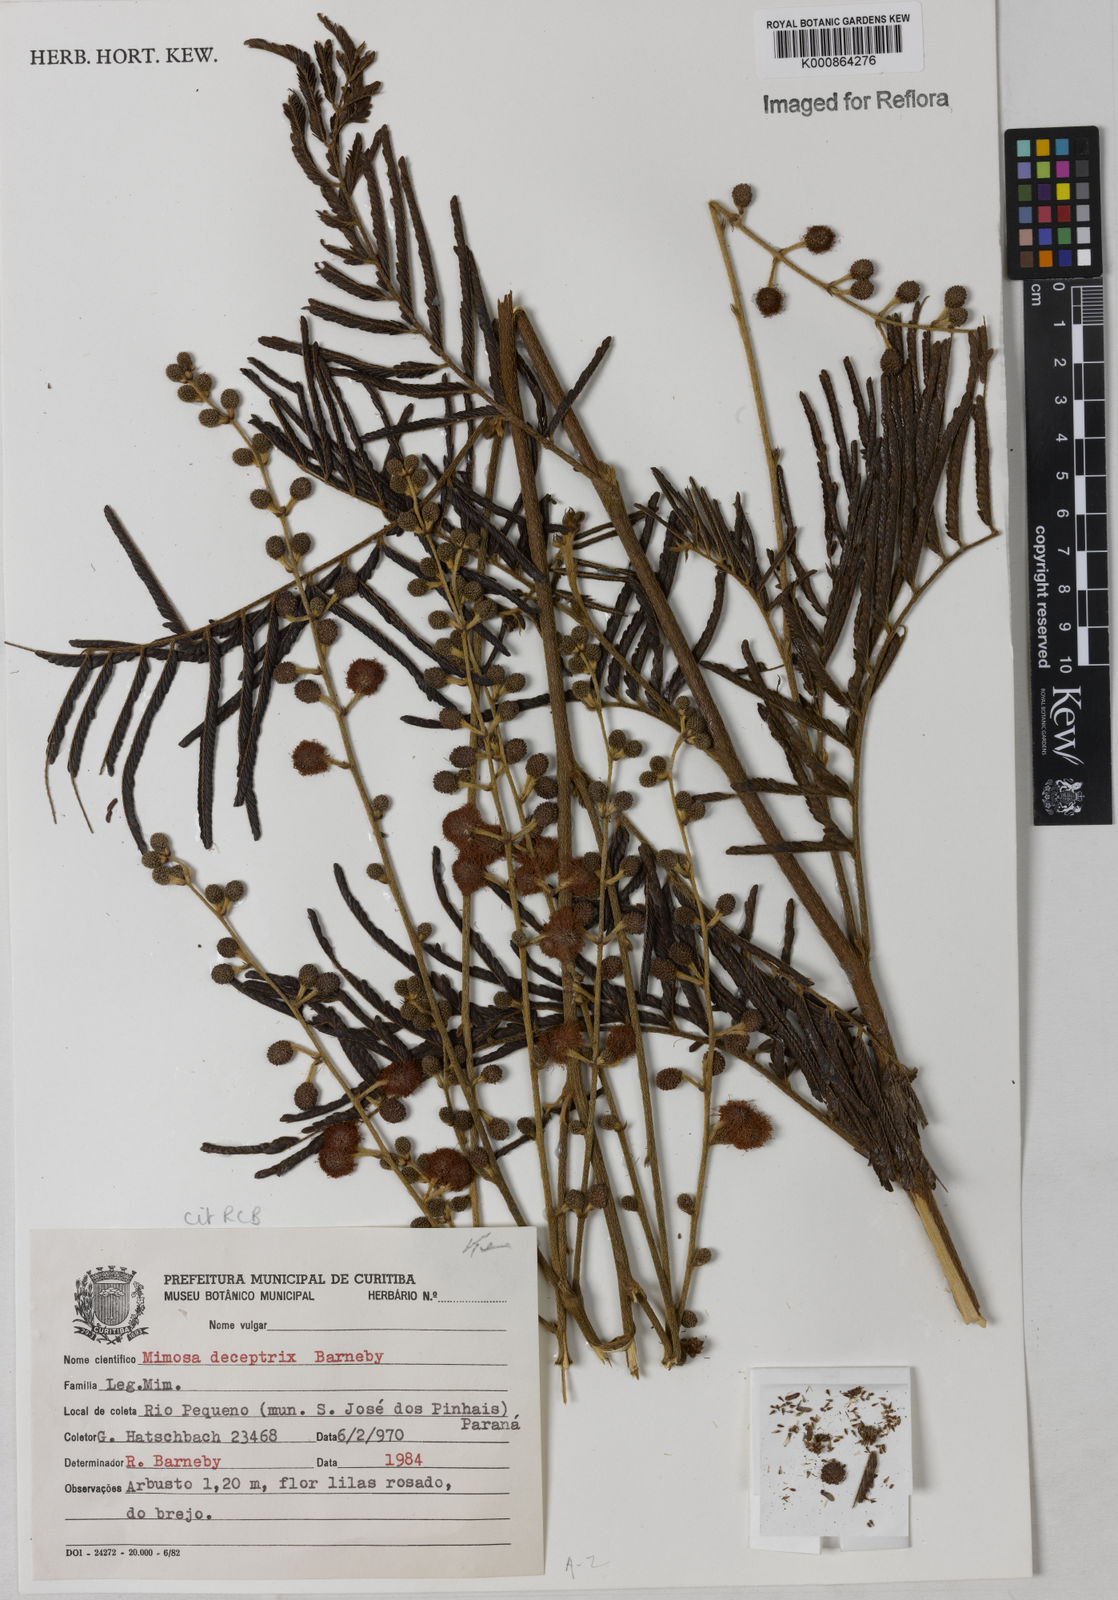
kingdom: Plantae
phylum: Tracheophyta
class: Magnoliopsida
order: Fabales
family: Fabaceae
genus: Mimosa
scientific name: Mimosa deceptrix
